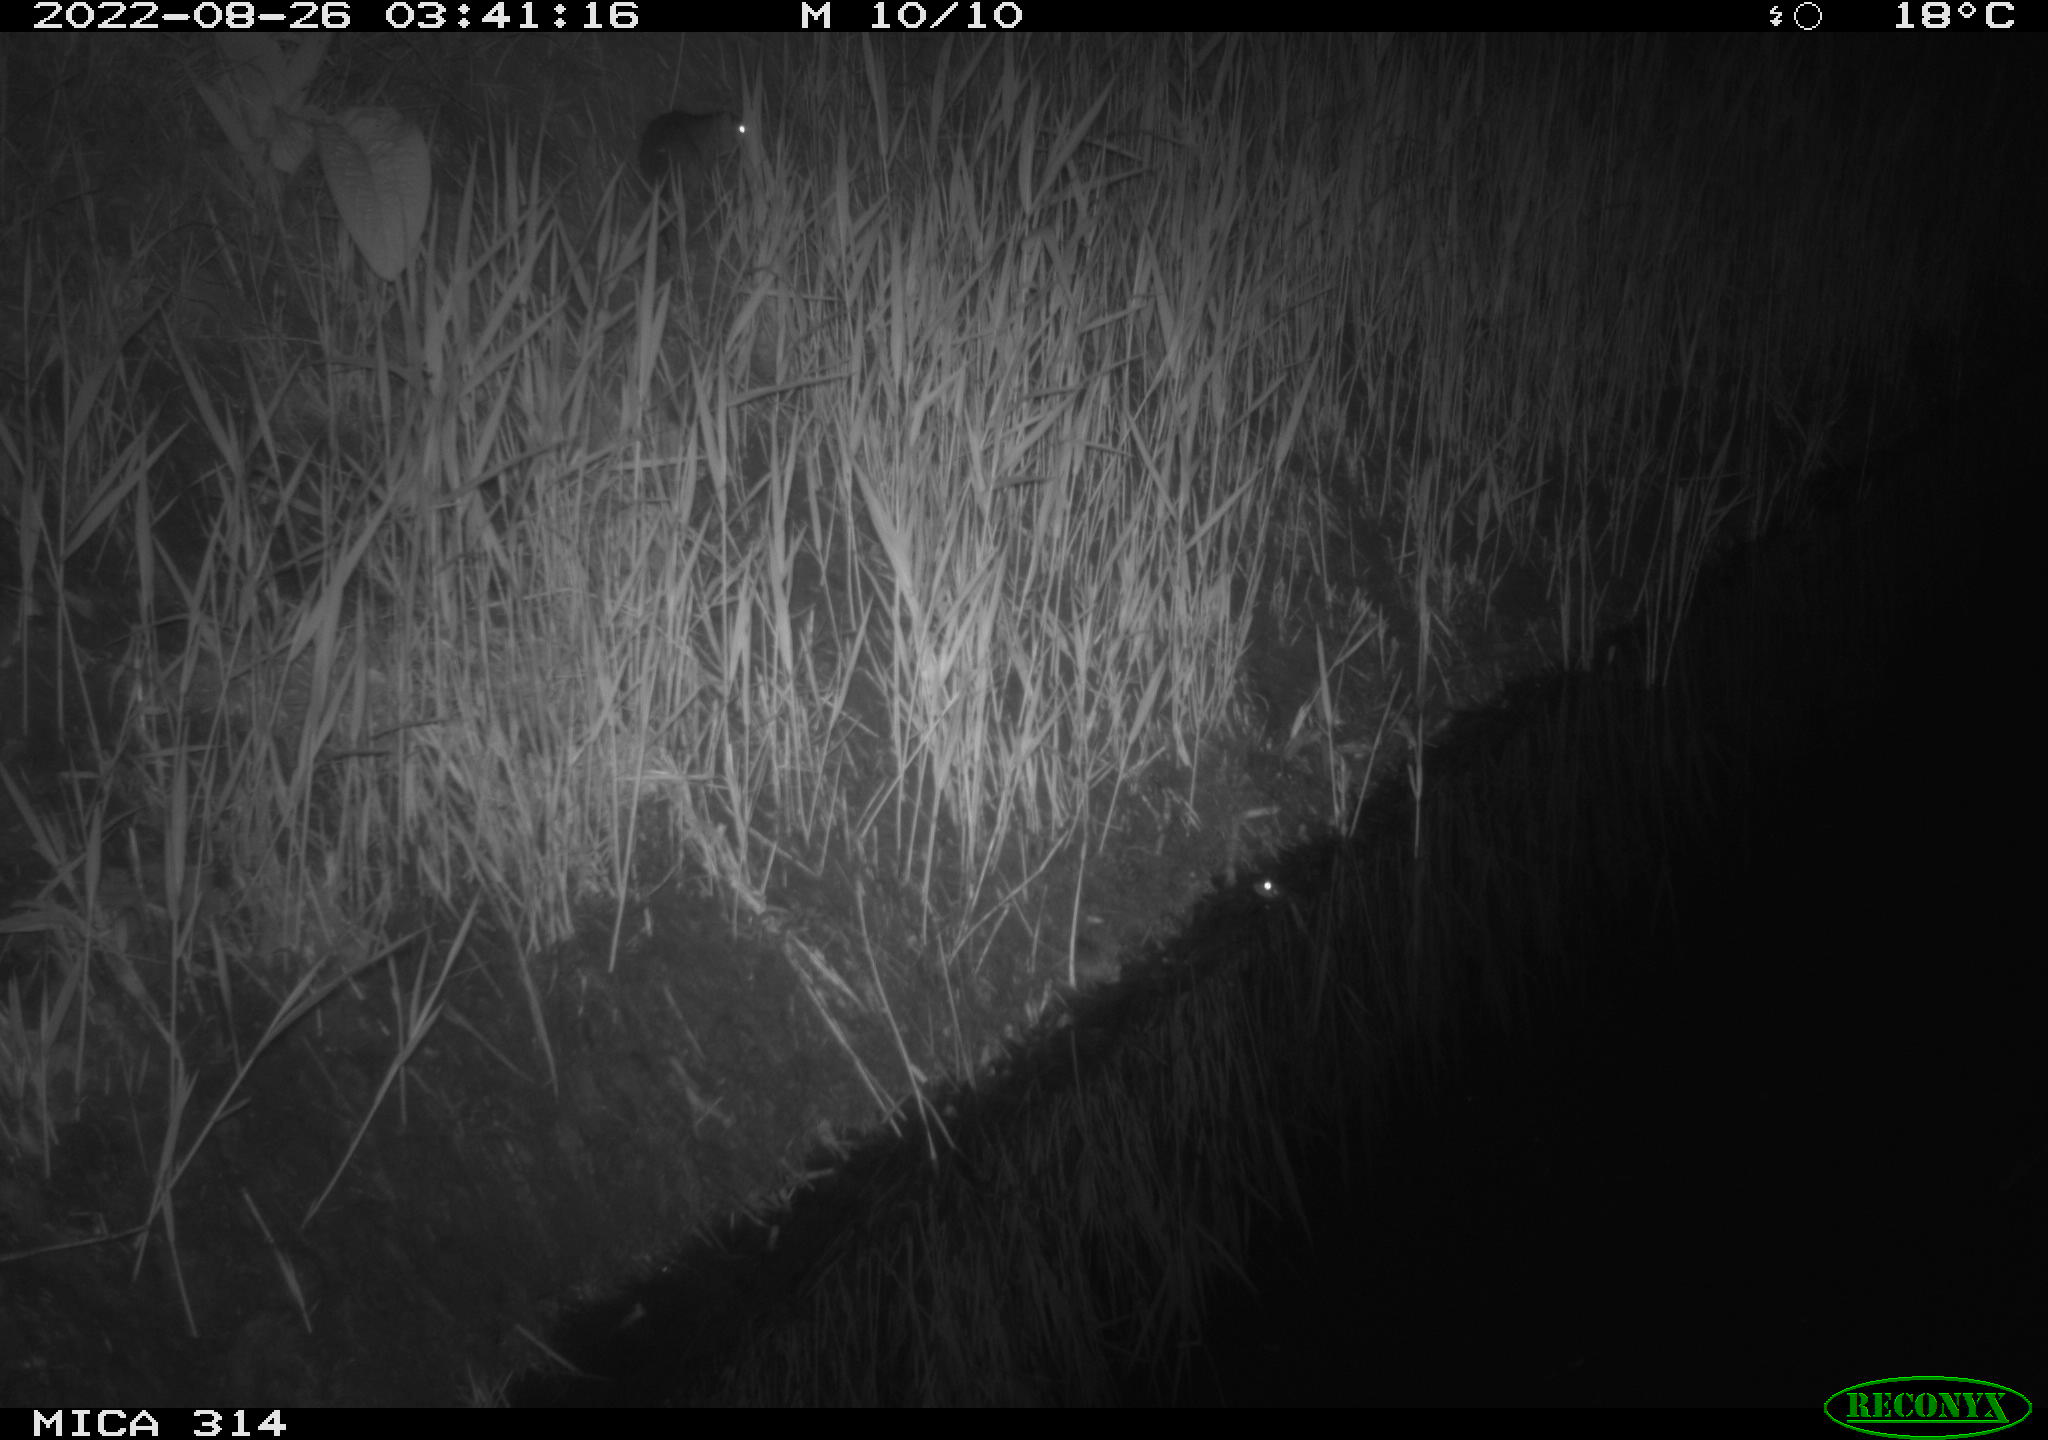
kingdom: Animalia
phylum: Chordata
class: Mammalia
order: Rodentia
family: Muridae
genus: Rattus
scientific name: Rattus norvegicus
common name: Brown rat
